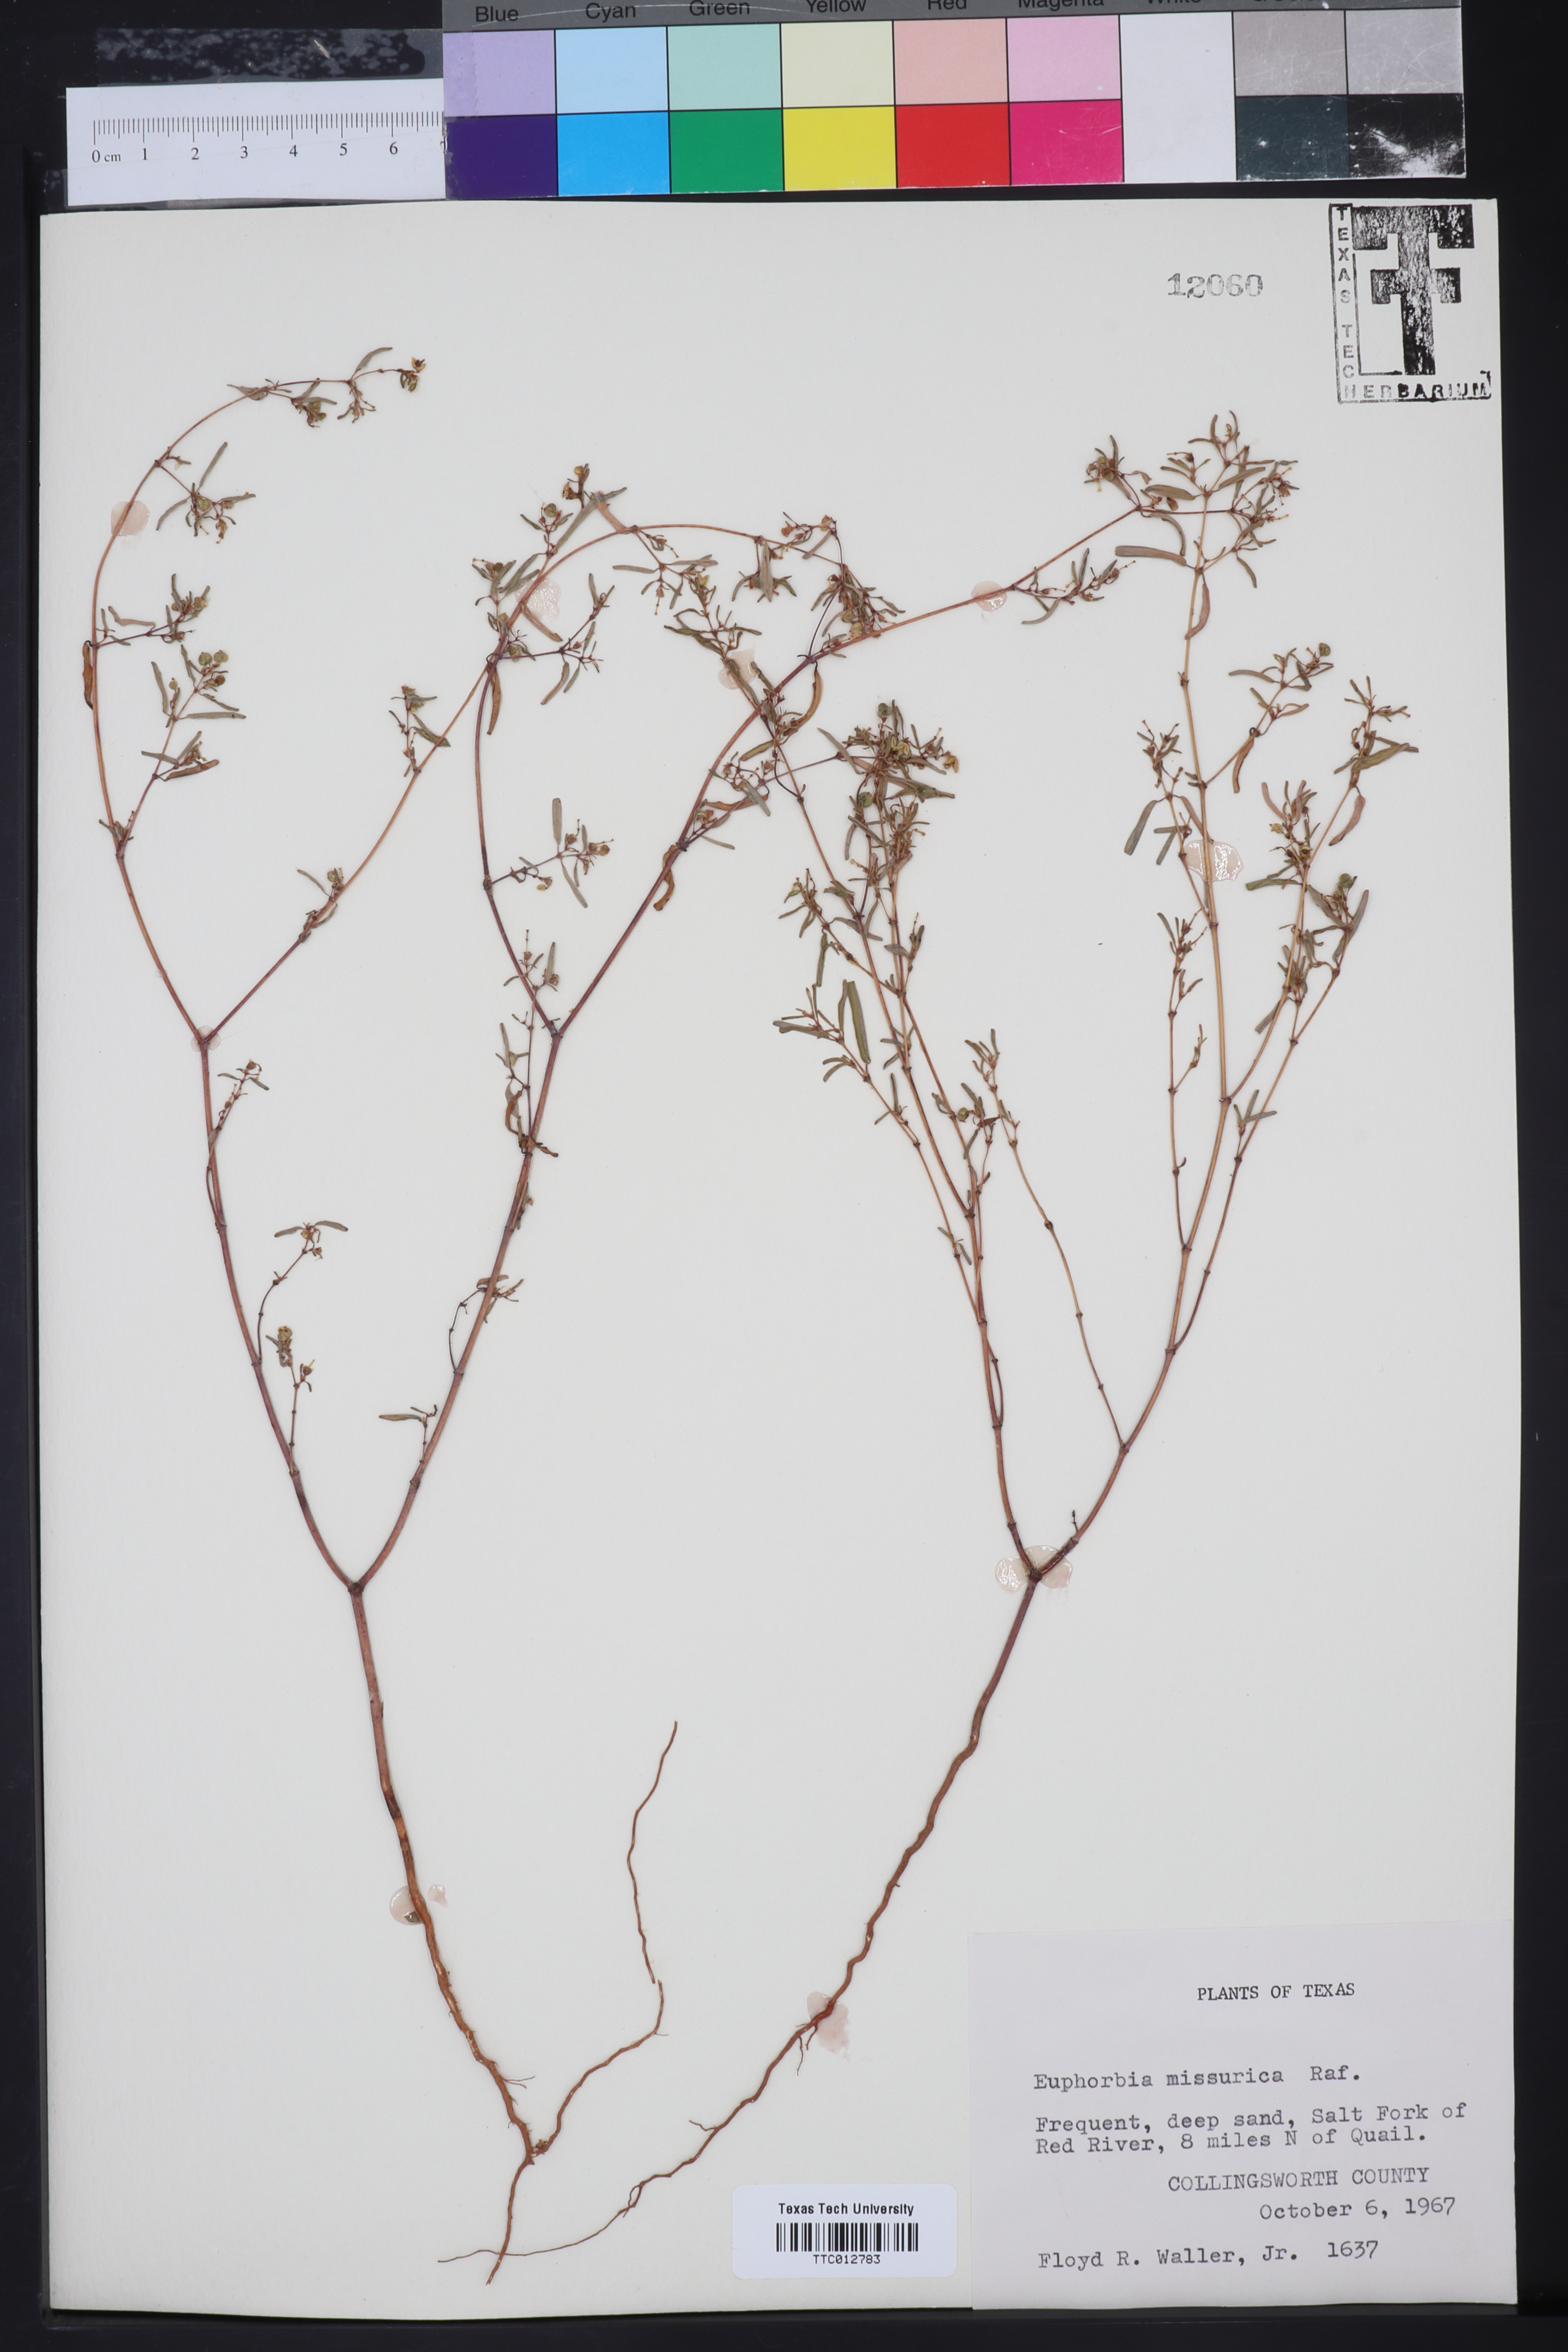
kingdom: Plantae
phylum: Tracheophyta
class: Magnoliopsida
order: Malpighiales
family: Euphorbiaceae
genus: Euphorbia
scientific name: Euphorbia missurica
